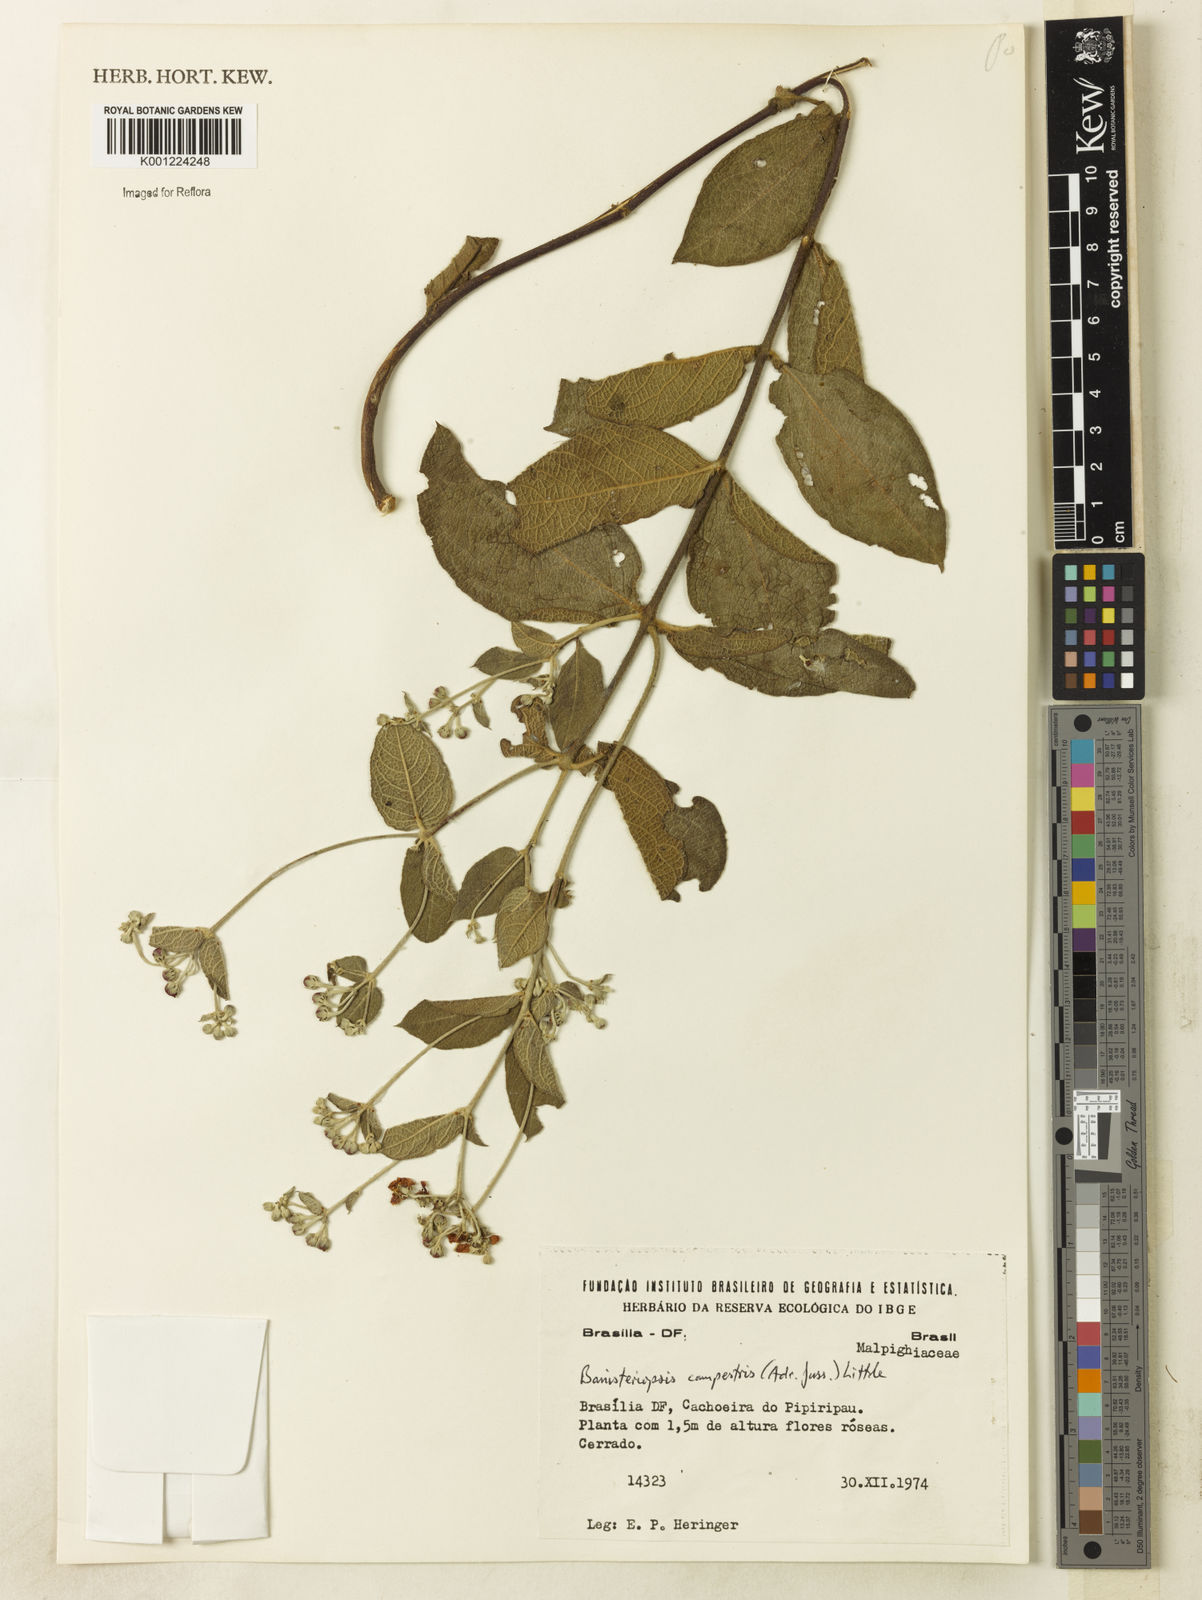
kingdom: Plantae
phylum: Tracheophyta
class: Magnoliopsida
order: Malpighiales
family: Malpighiaceae
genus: Banisteriopsis
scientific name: Banisteriopsis campestris
